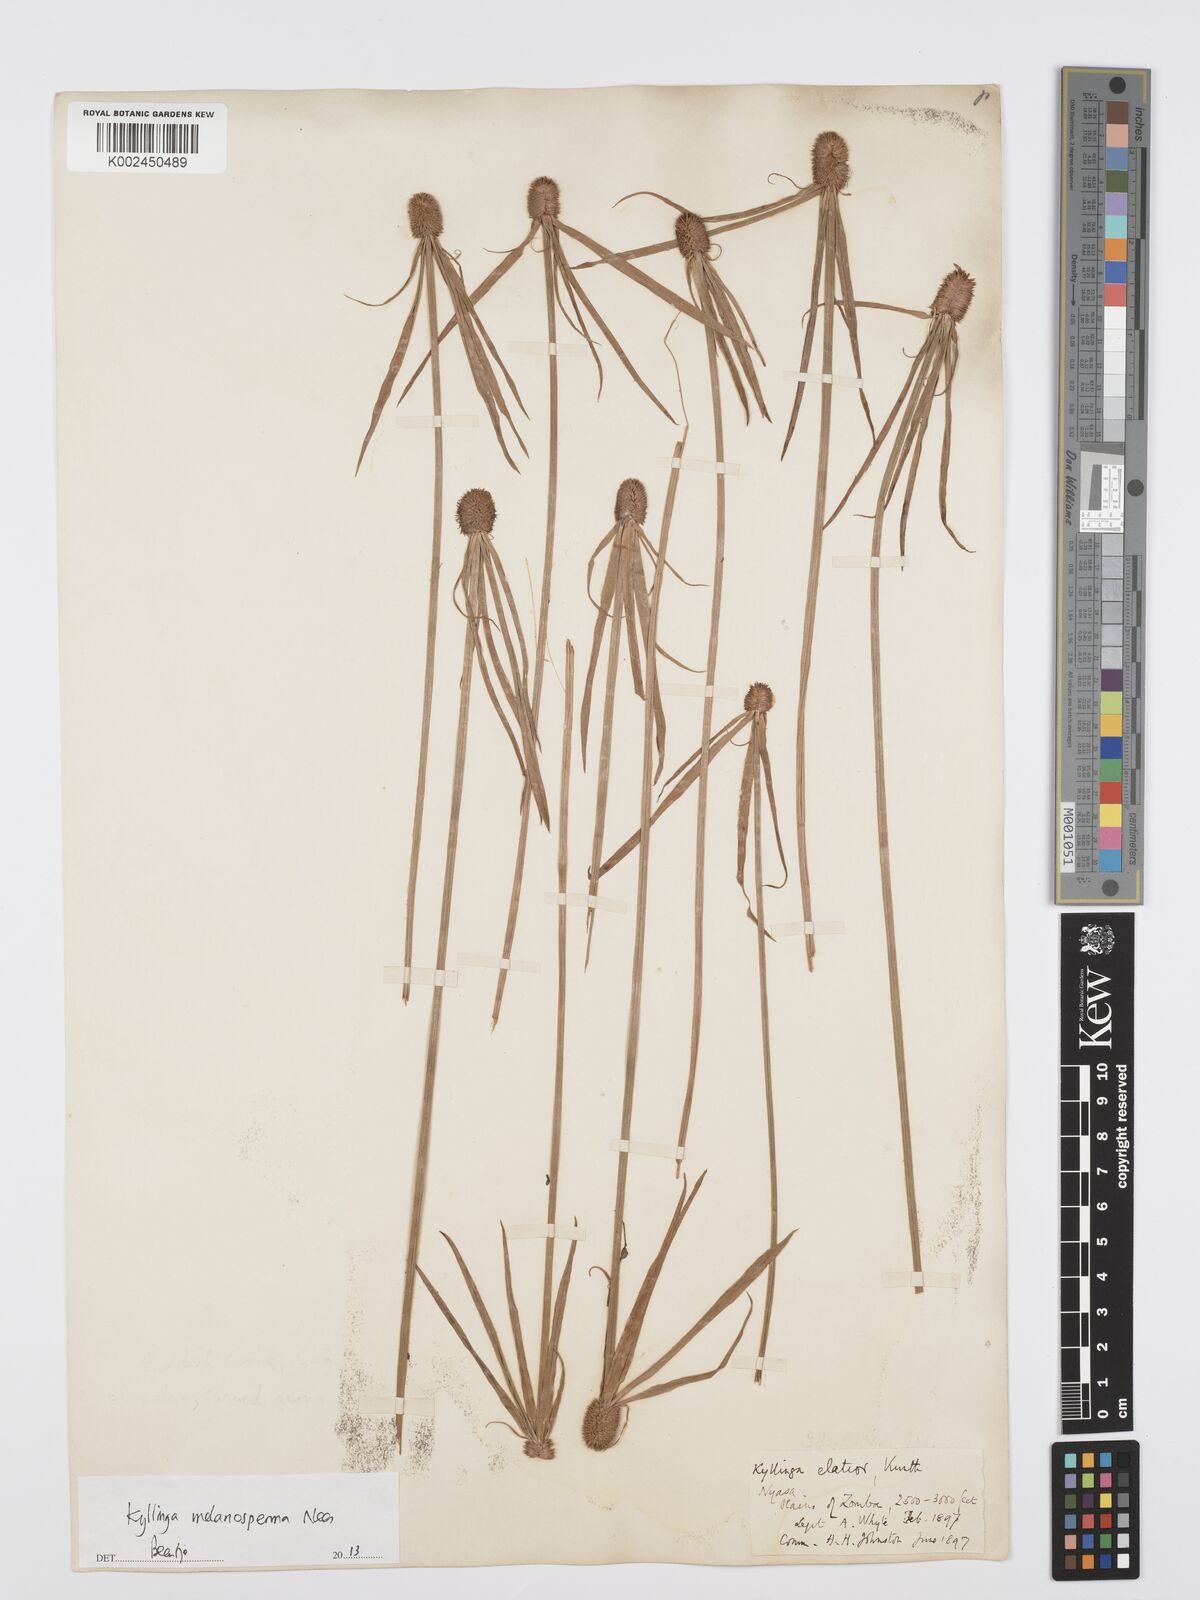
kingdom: Plantae
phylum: Tracheophyta
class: Liliopsida
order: Poales
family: Cyperaceae
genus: Cyperus
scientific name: Cyperus melanospermus
